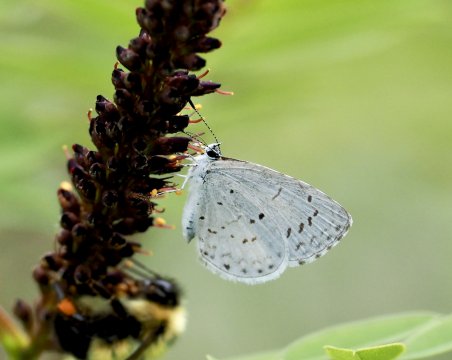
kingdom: Animalia
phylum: Arthropoda
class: Insecta
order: Lepidoptera
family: Lycaenidae
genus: Cyaniris
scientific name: Cyaniris neglecta
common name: Summer Azure
